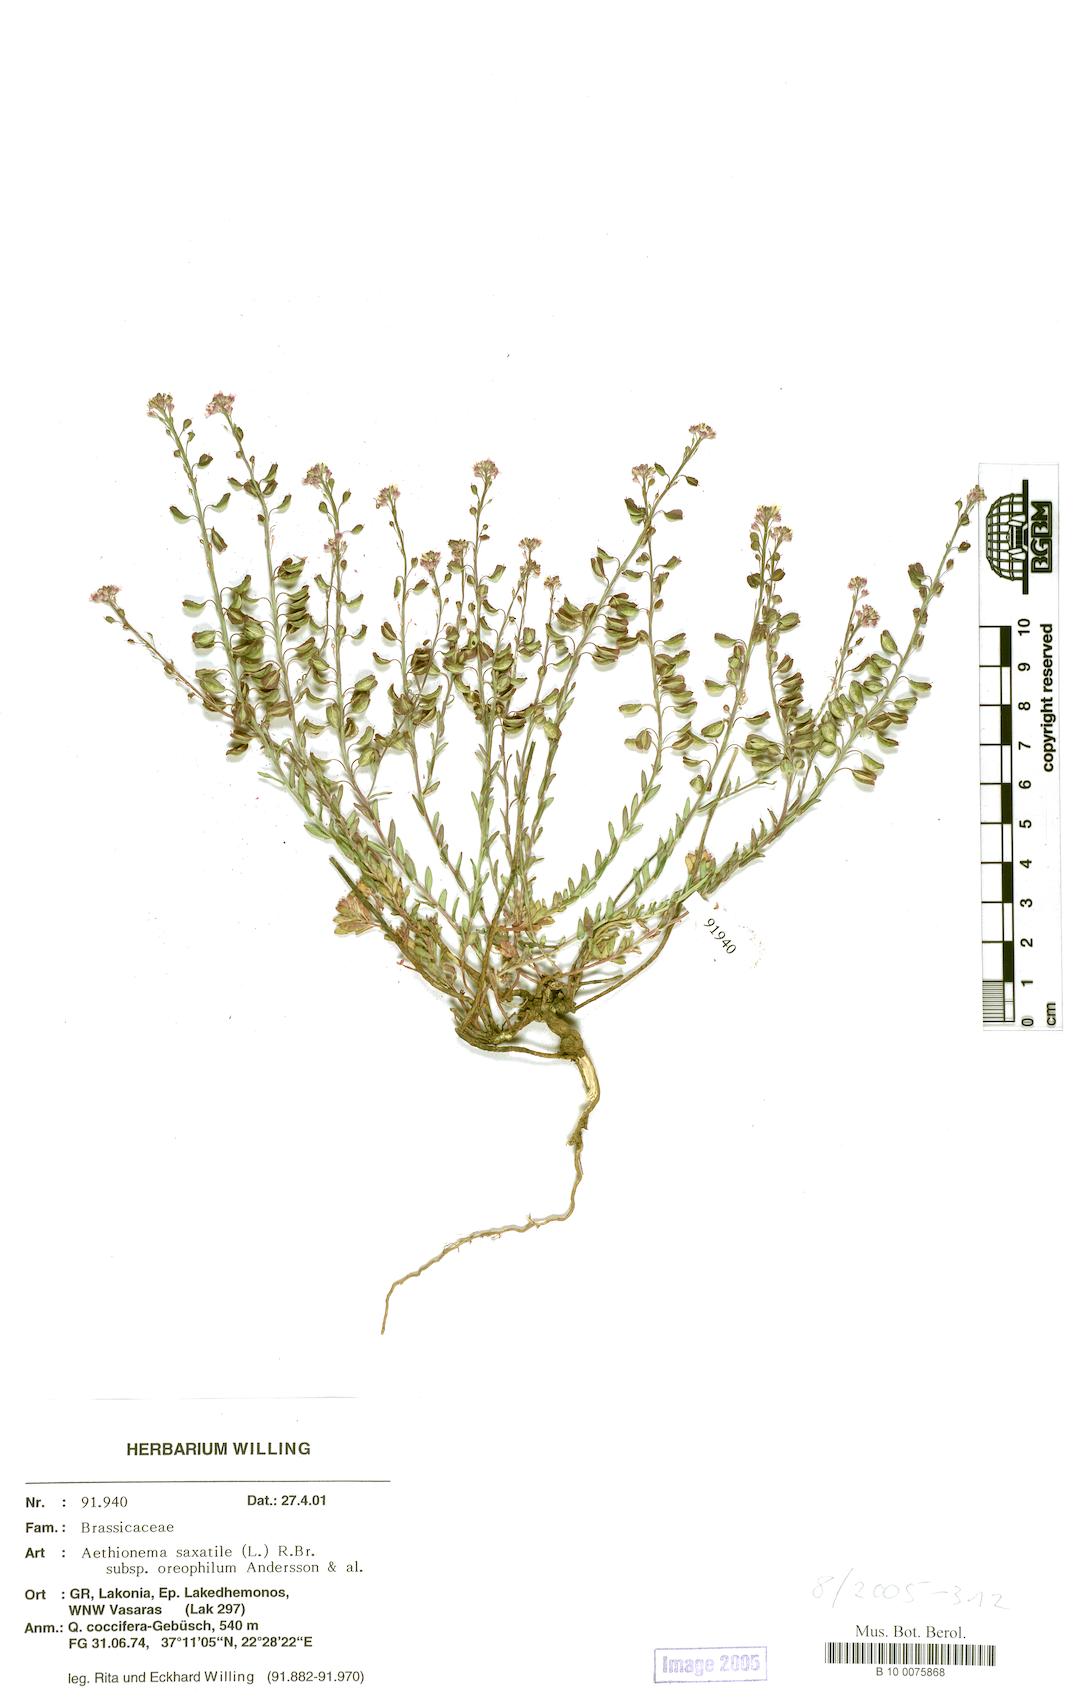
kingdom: Plantae
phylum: Tracheophyta
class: Magnoliopsida
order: Brassicales
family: Brassicaceae
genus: Aethionema
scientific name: Aethionema saxatile
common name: Burnt candytuft
